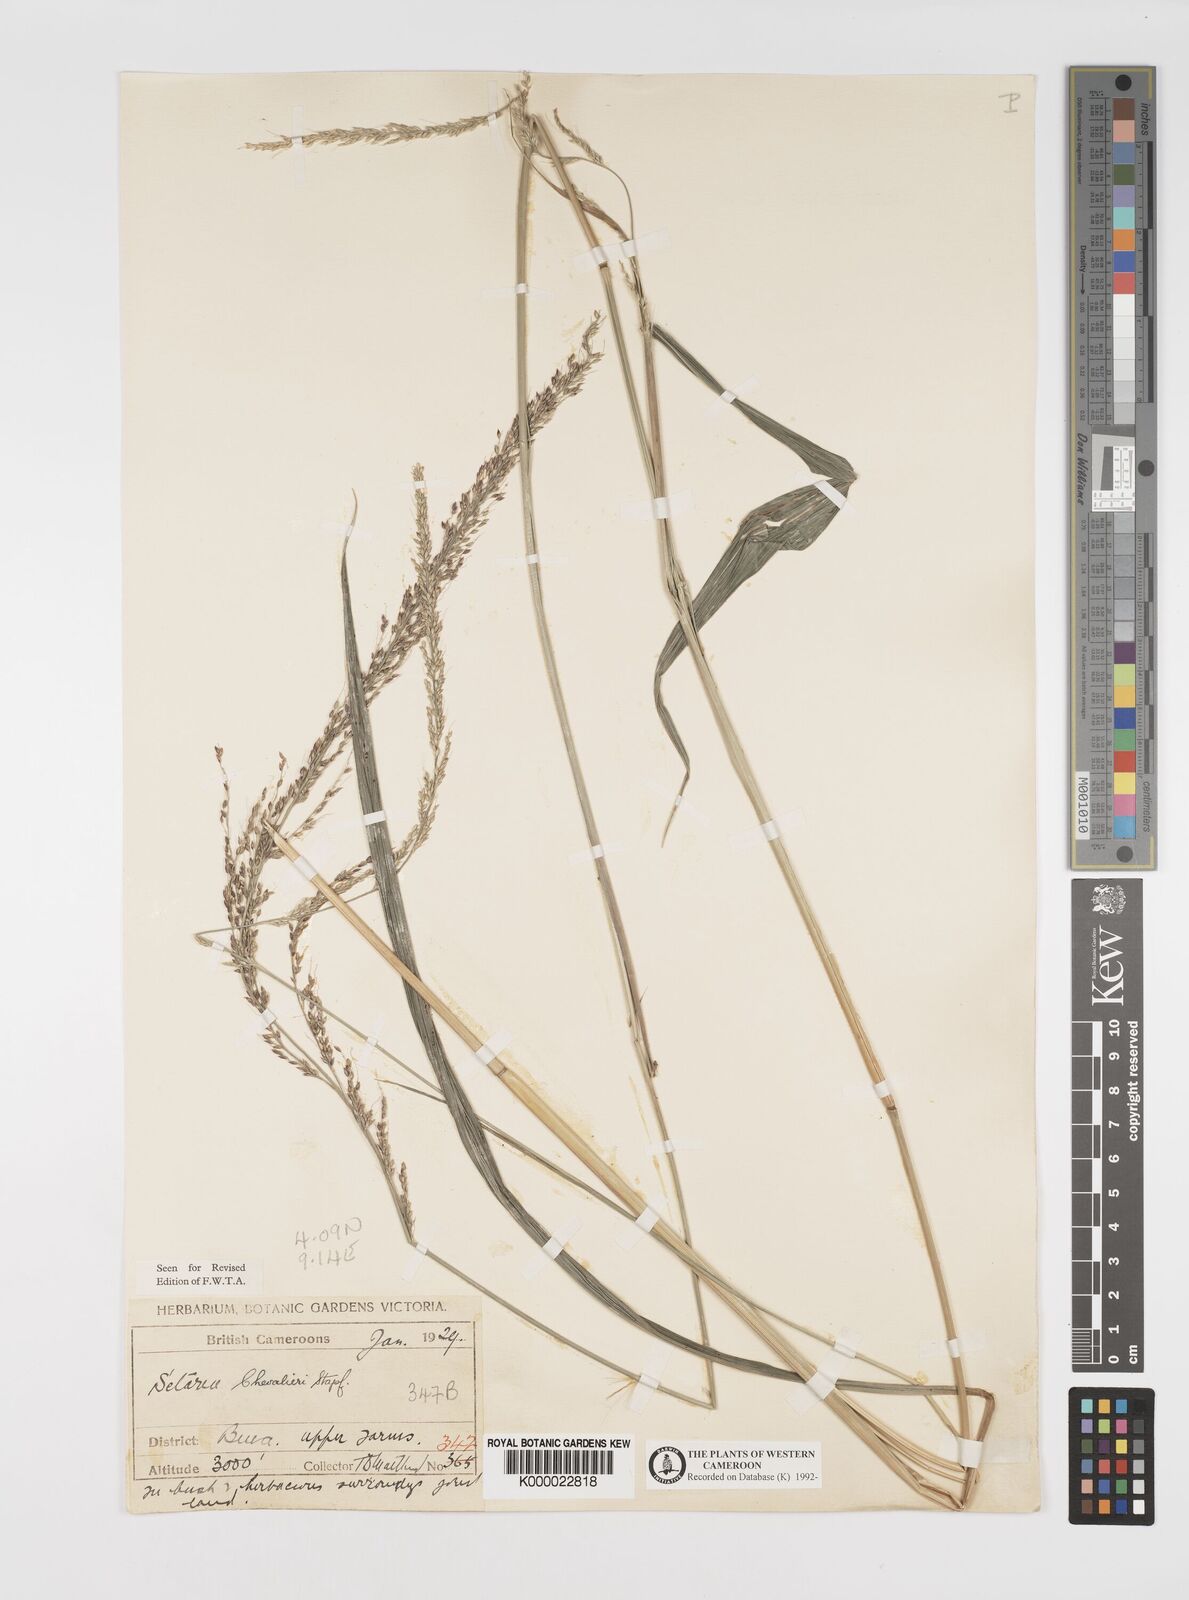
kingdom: Plantae
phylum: Tracheophyta
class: Liliopsida
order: Poales
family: Poaceae
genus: Setaria
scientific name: Setaria megaphylla
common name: Bigleaf bristlegrass
